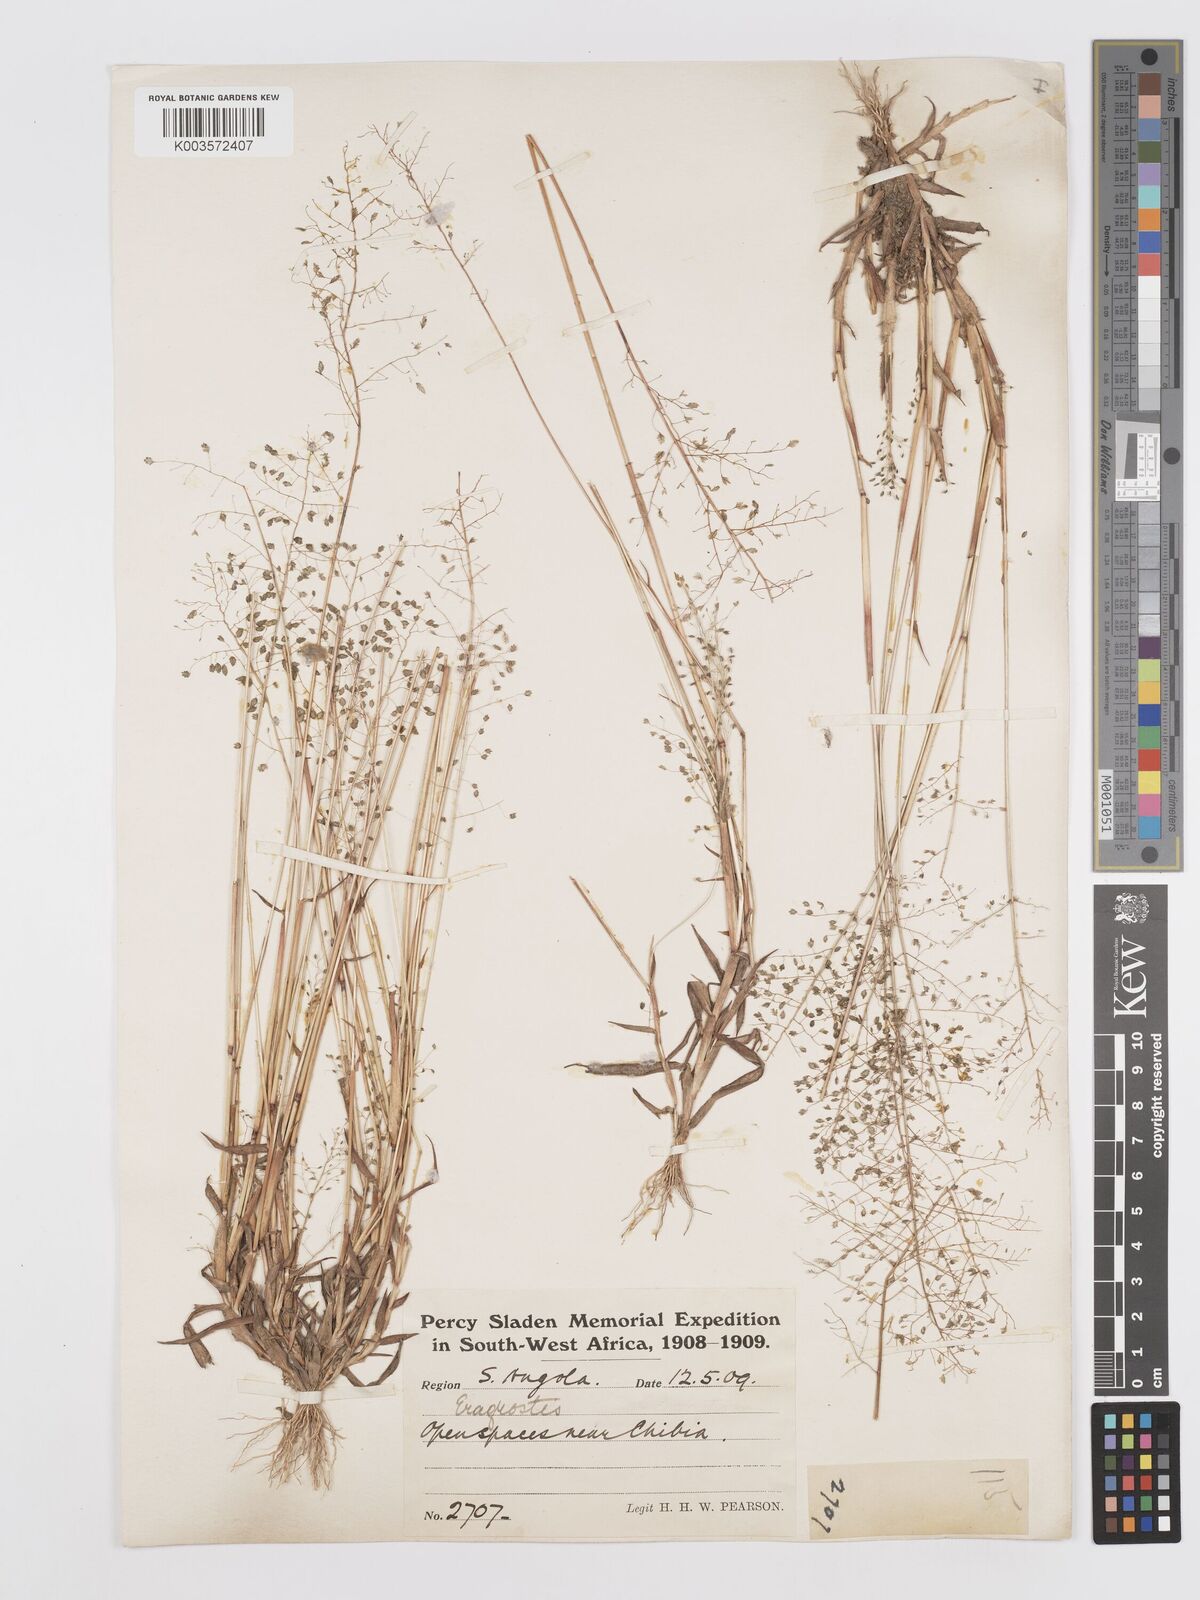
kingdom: Plantae
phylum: Tracheophyta
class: Liliopsida
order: Poales
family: Poaceae
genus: Eragrostis
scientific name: Eragrostis
